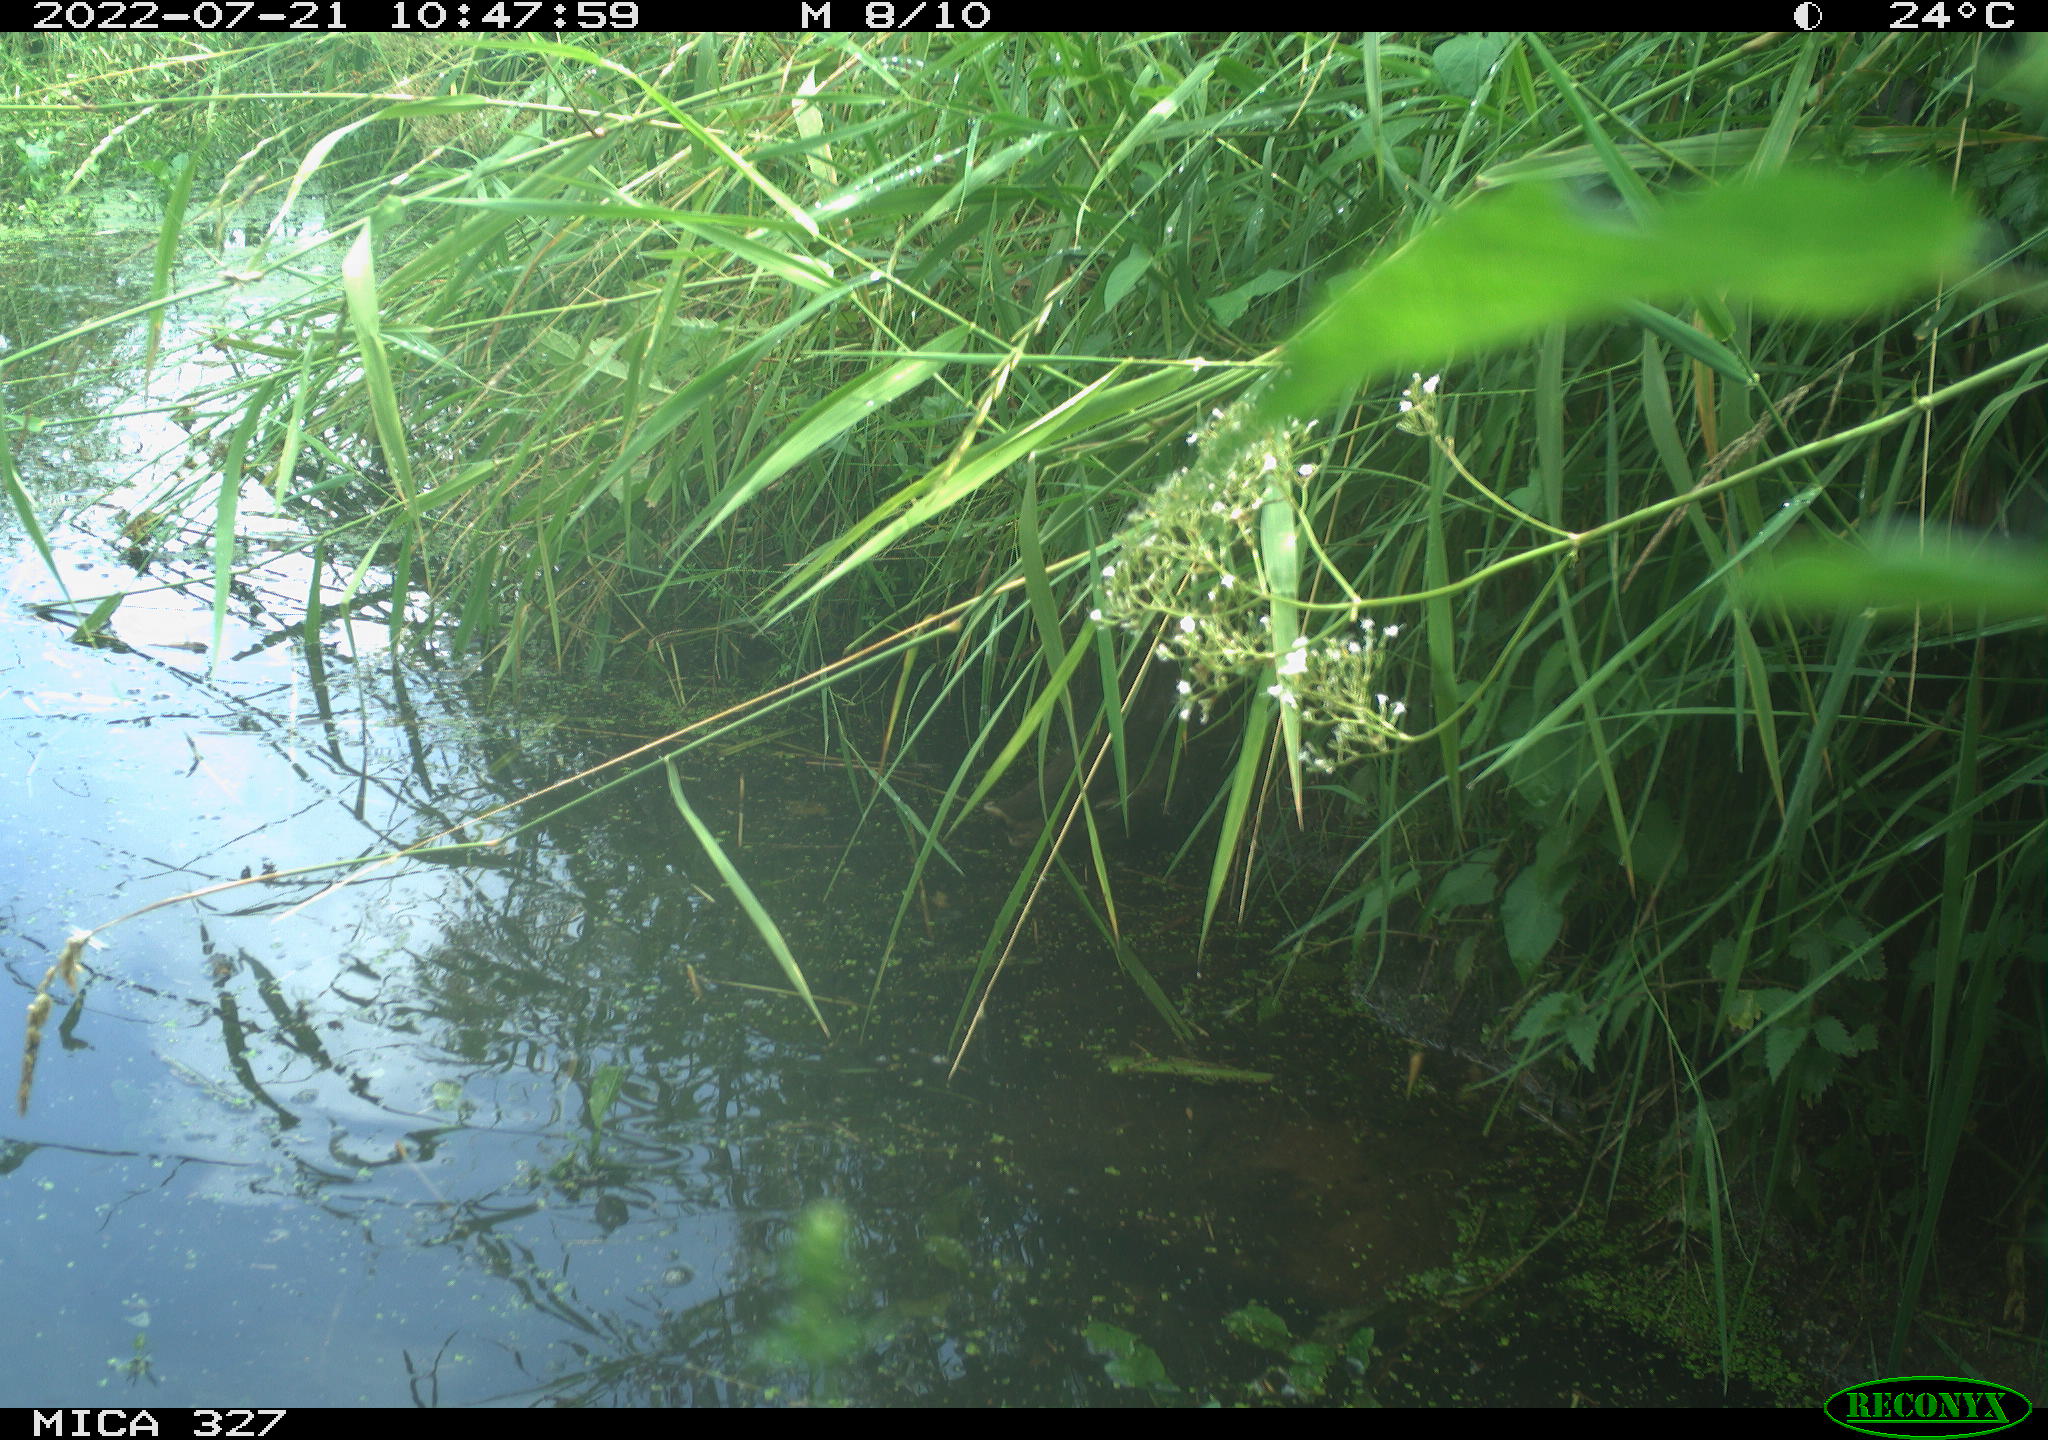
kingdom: Animalia
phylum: Chordata
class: Aves
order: Gruiformes
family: Rallidae
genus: Gallinula
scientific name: Gallinula chloropus
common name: Common moorhen
